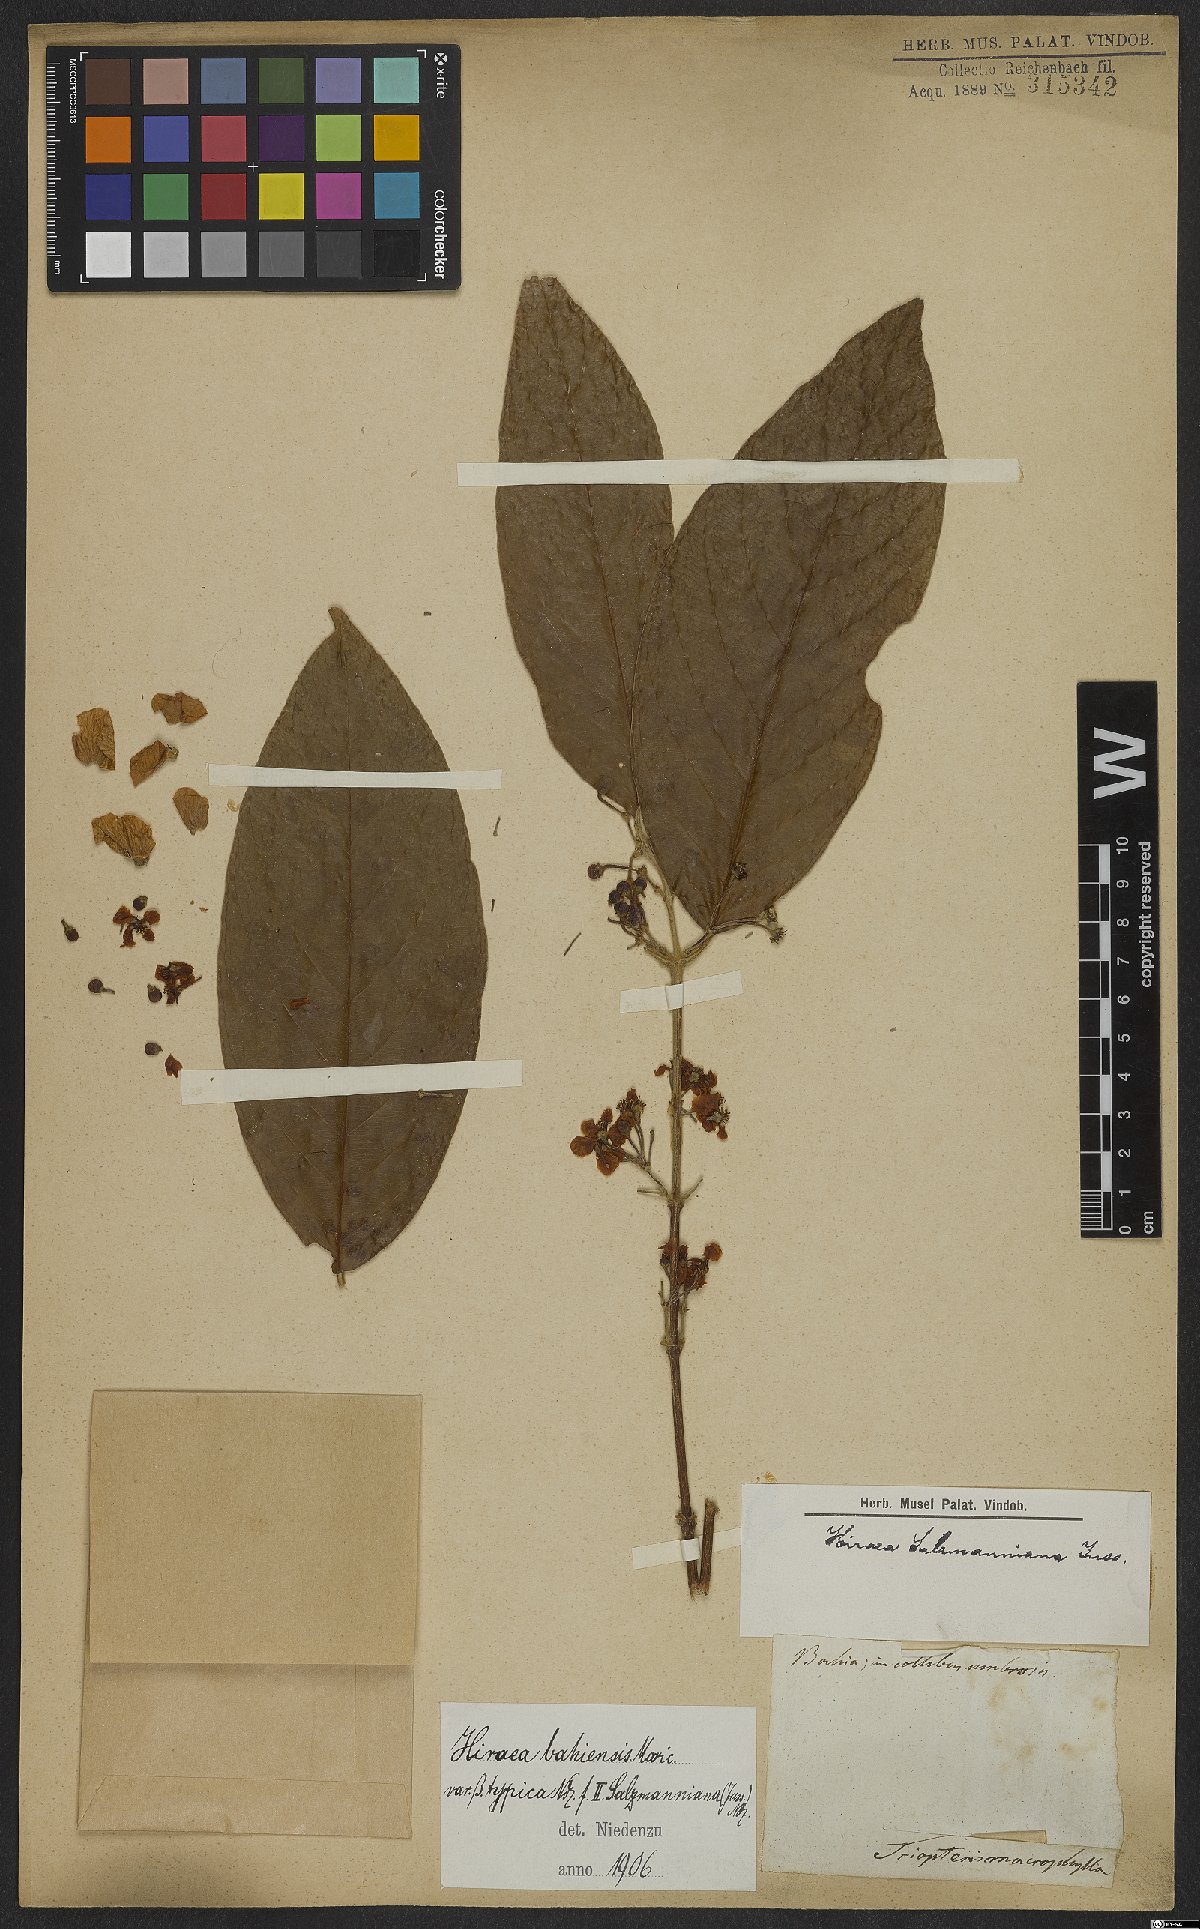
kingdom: Plantae
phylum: Tracheophyta
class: Magnoliopsida
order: Malpighiales
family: Malpighiaceae
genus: Hiraea
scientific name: Hiraea fagifolia
